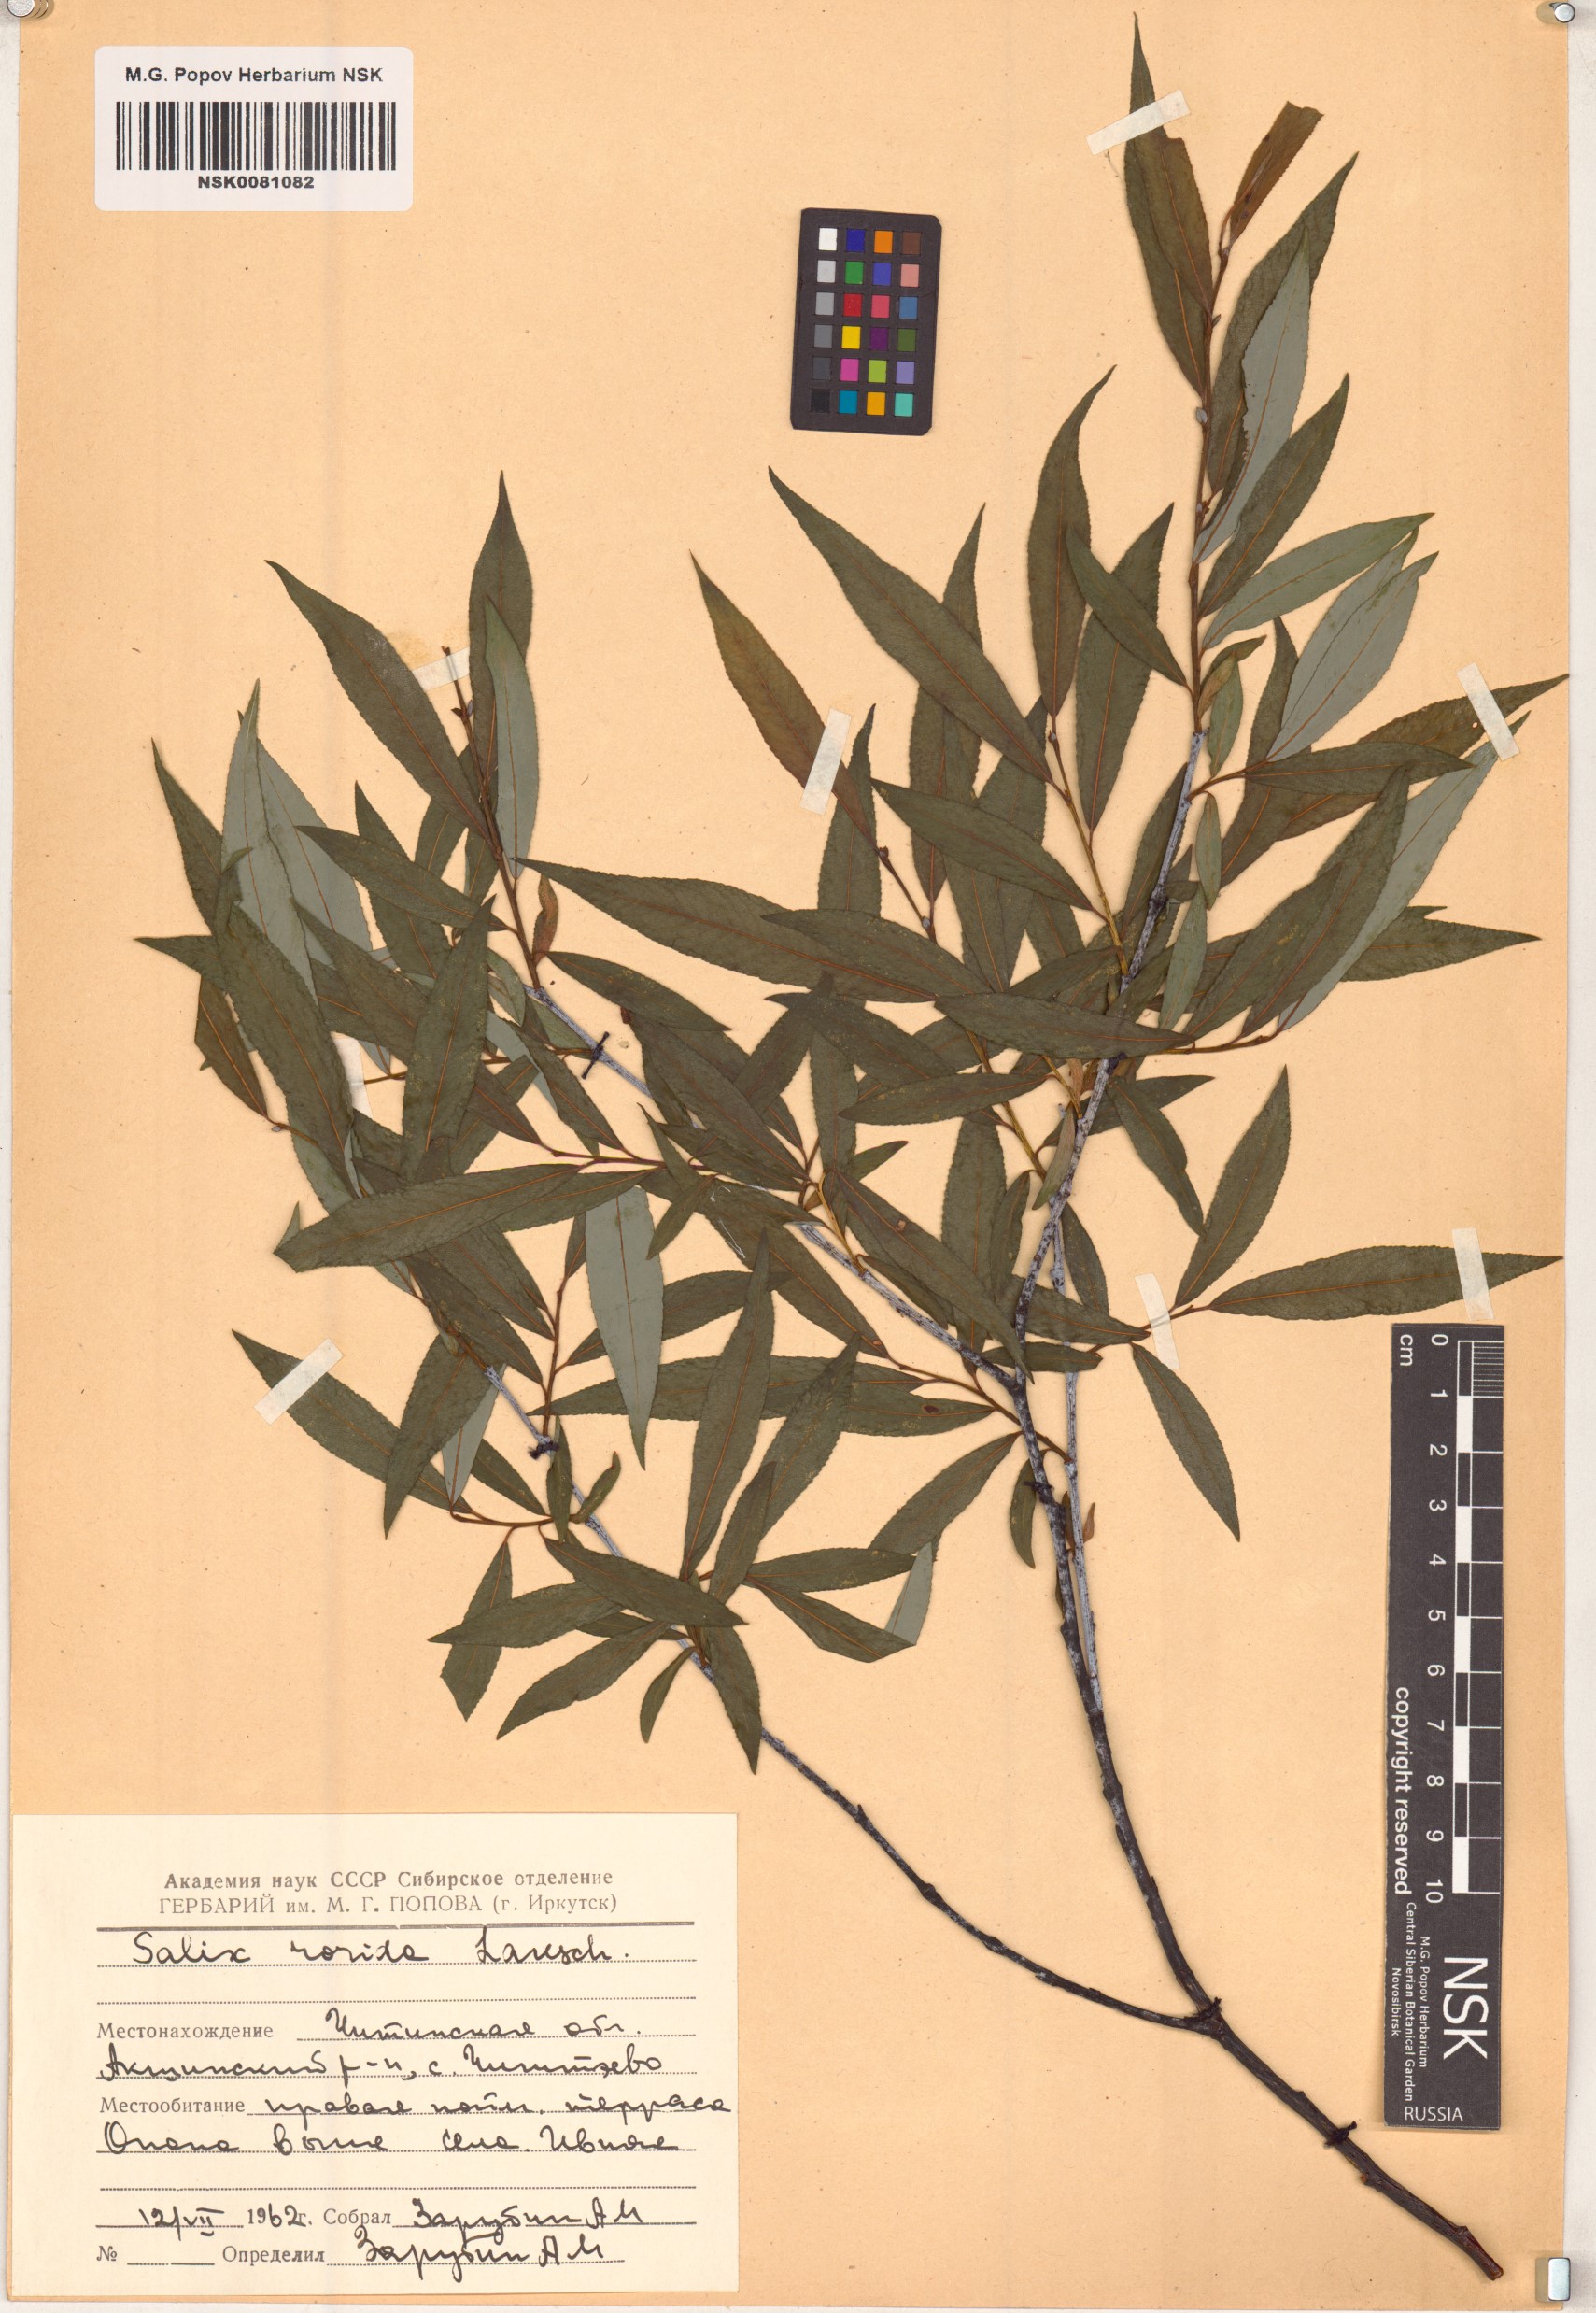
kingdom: Plantae
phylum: Tracheophyta
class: Magnoliopsida
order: Malpighiales
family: Salicaceae
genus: Salix
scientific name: Salix rorida
